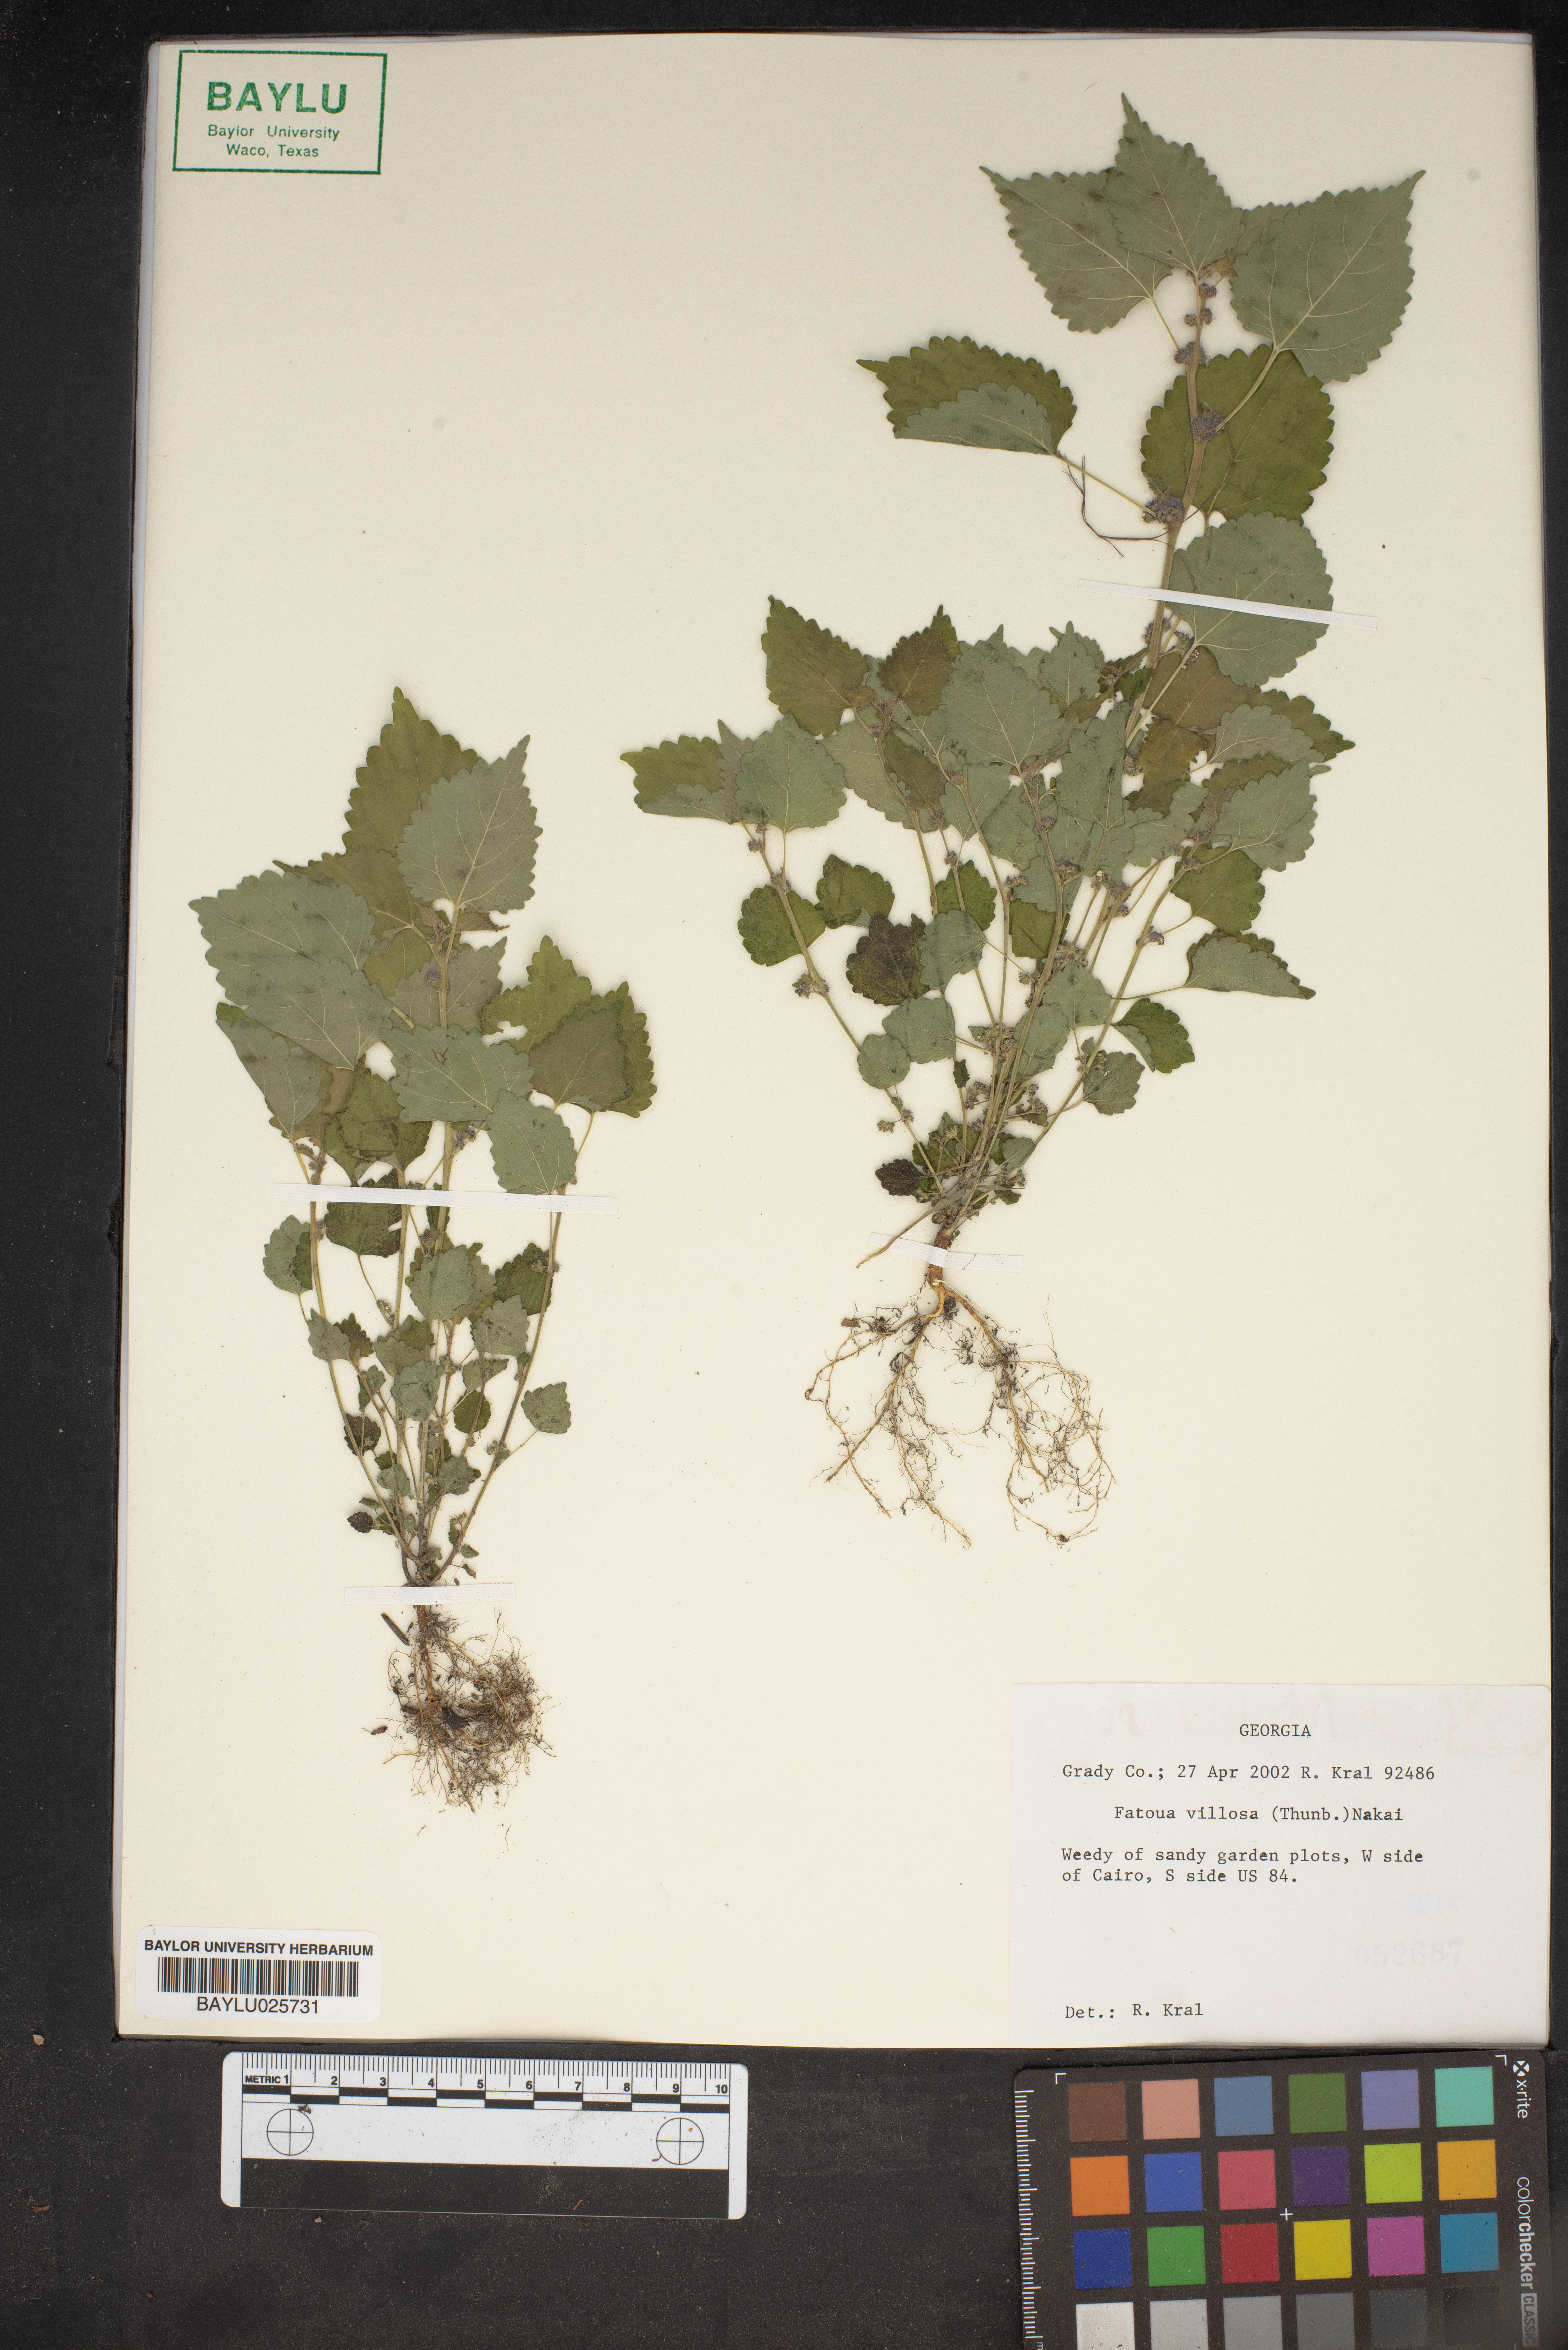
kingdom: Plantae
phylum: Tracheophyta
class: Magnoliopsida
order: Rosales
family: Moraceae
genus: Fatoua
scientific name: Fatoua villosa
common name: Hairy crabweed
